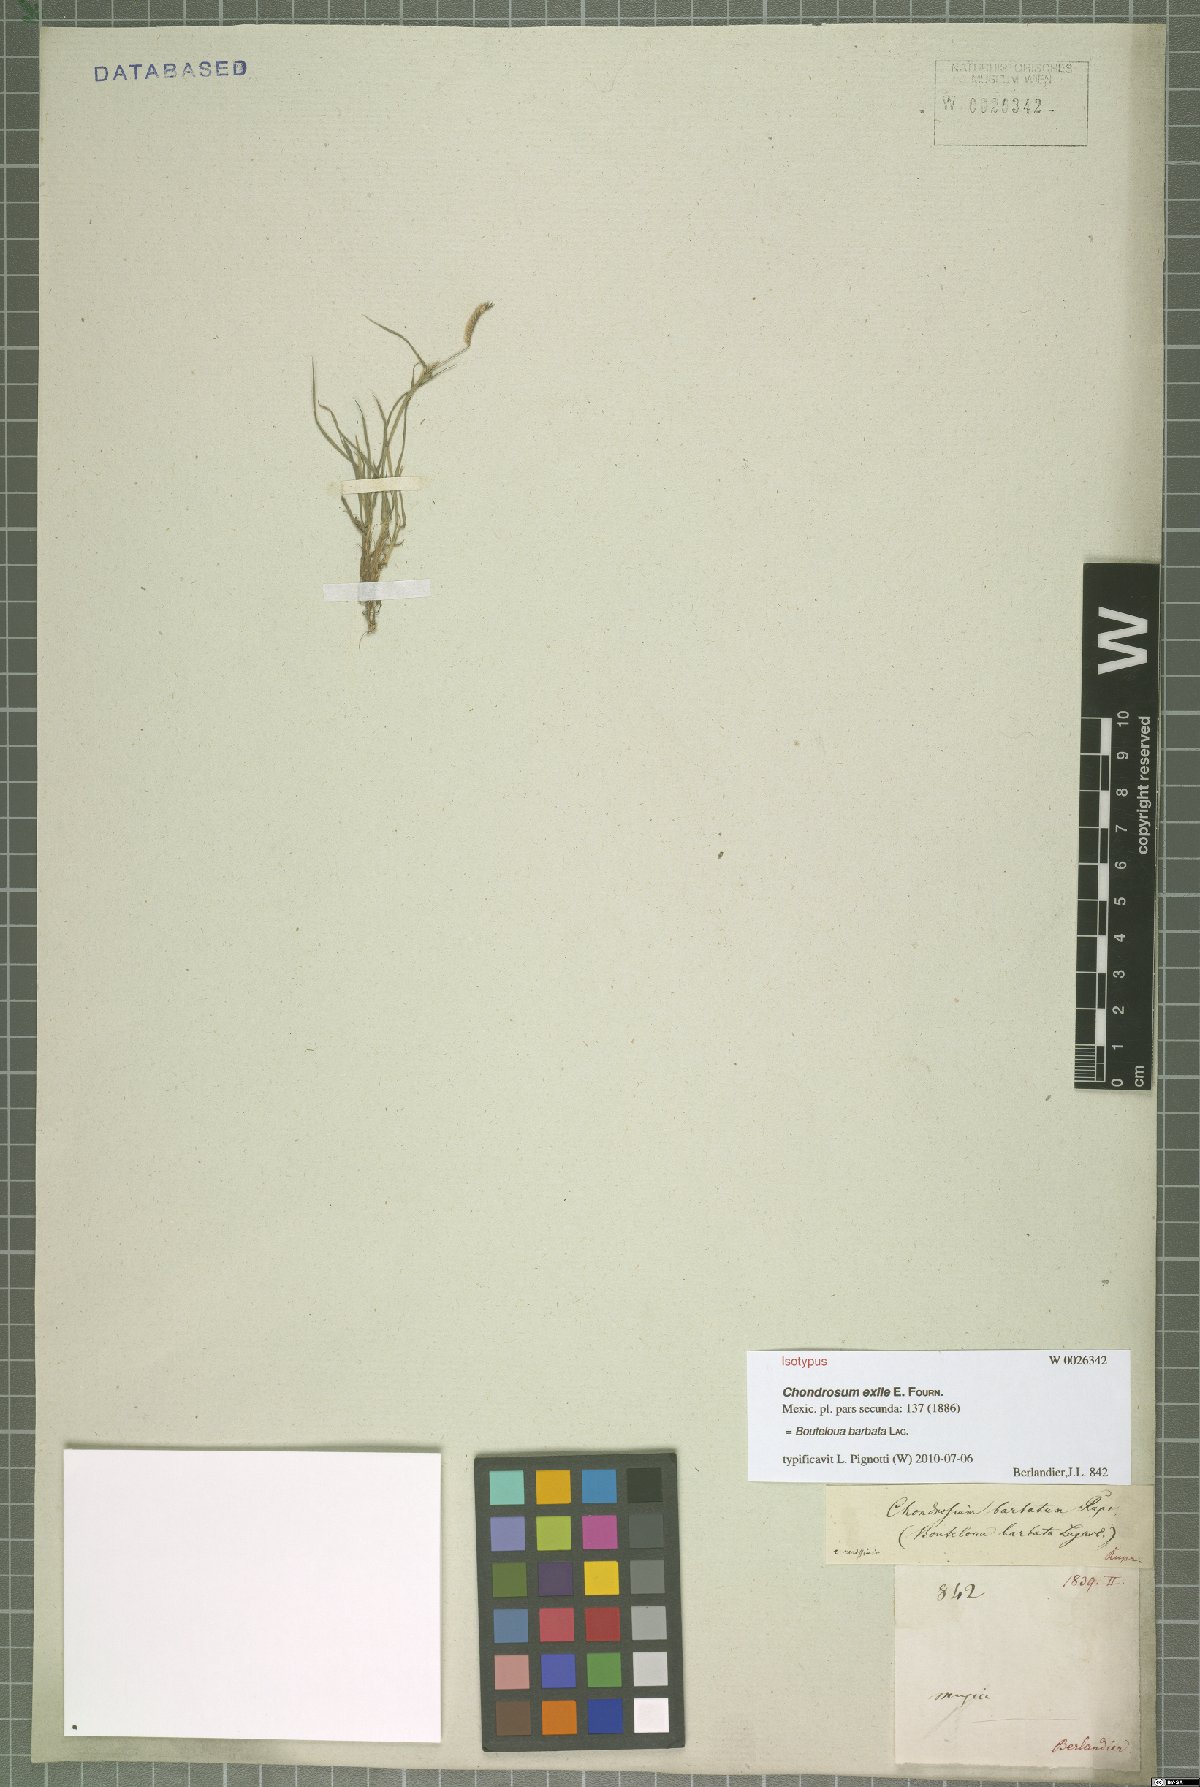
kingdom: Plantae
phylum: Tracheophyta
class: Liliopsida
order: Poales
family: Poaceae
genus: Bouteloua
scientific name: Bouteloua barbata
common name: Six-weeks grama
